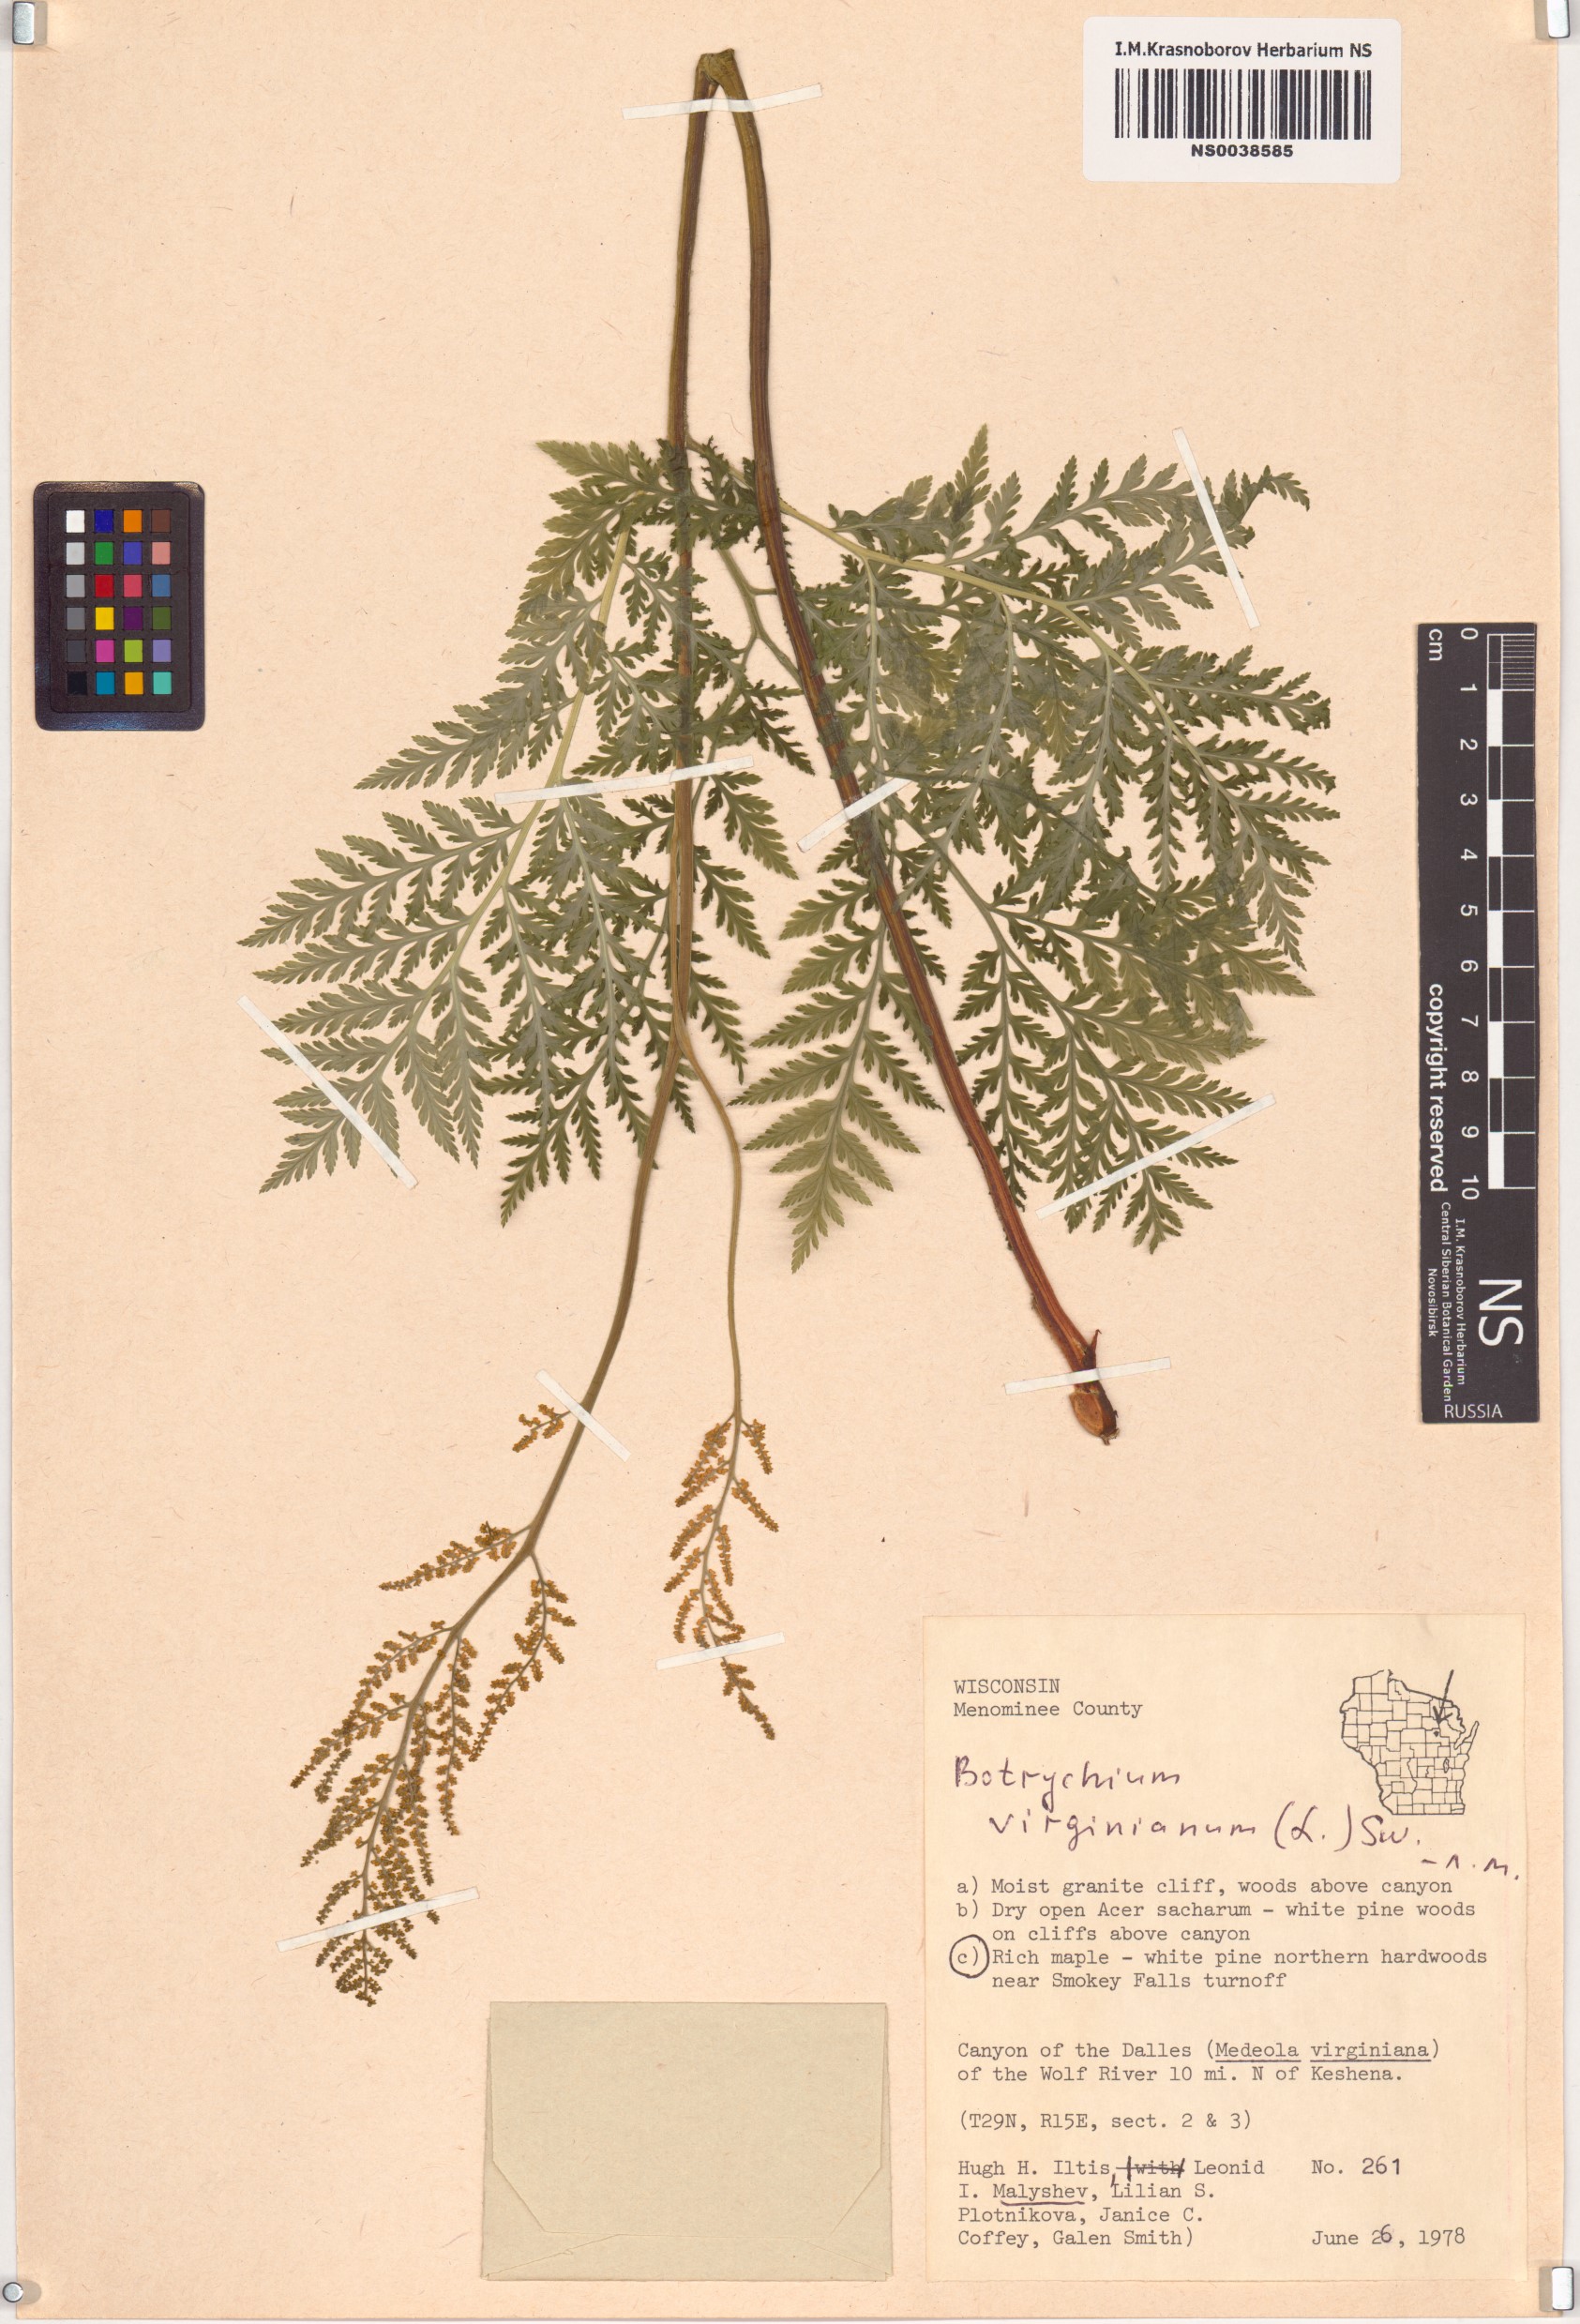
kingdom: Plantae
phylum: Tracheophyta
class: Polypodiopsida
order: Ophioglossales
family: Ophioglossaceae
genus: Botrypus
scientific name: Botrypus virginianus
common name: Common grapefern
